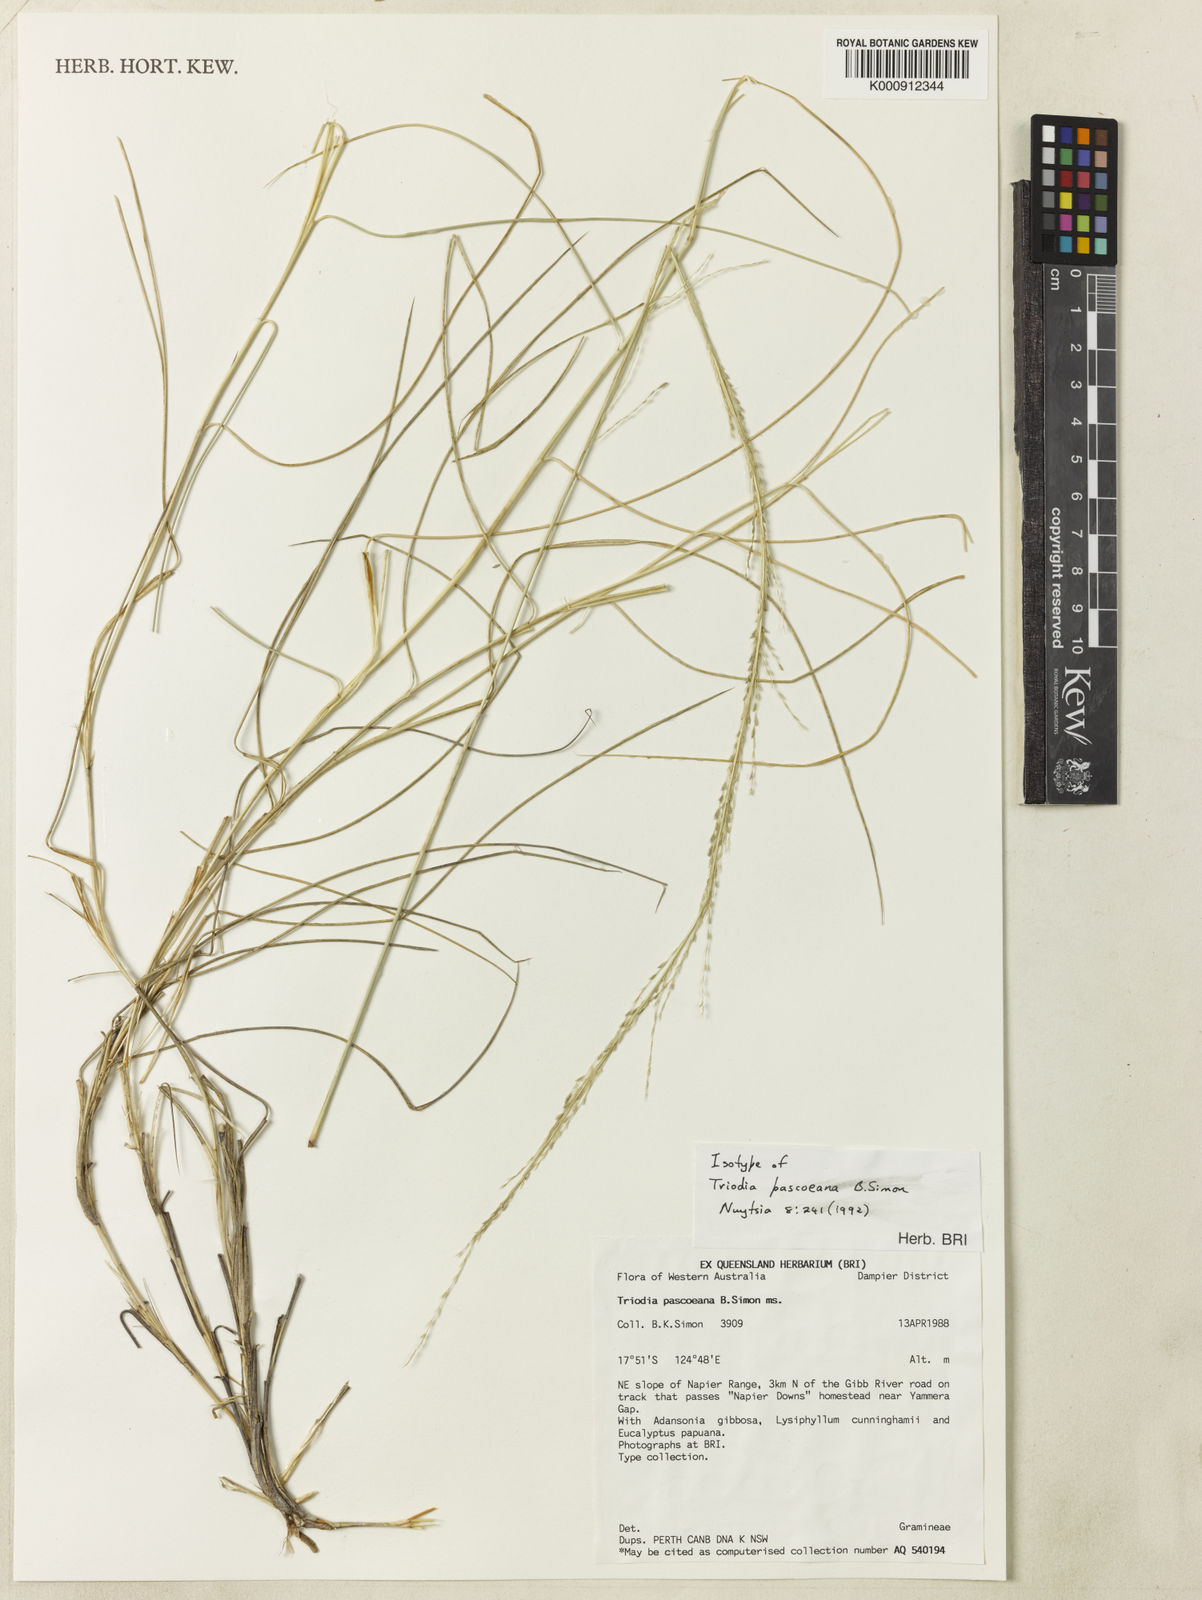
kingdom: Plantae
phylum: Tracheophyta
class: Liliopsida
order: Poales
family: Poaceae
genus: Triodia
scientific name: Triodia pascoeana
